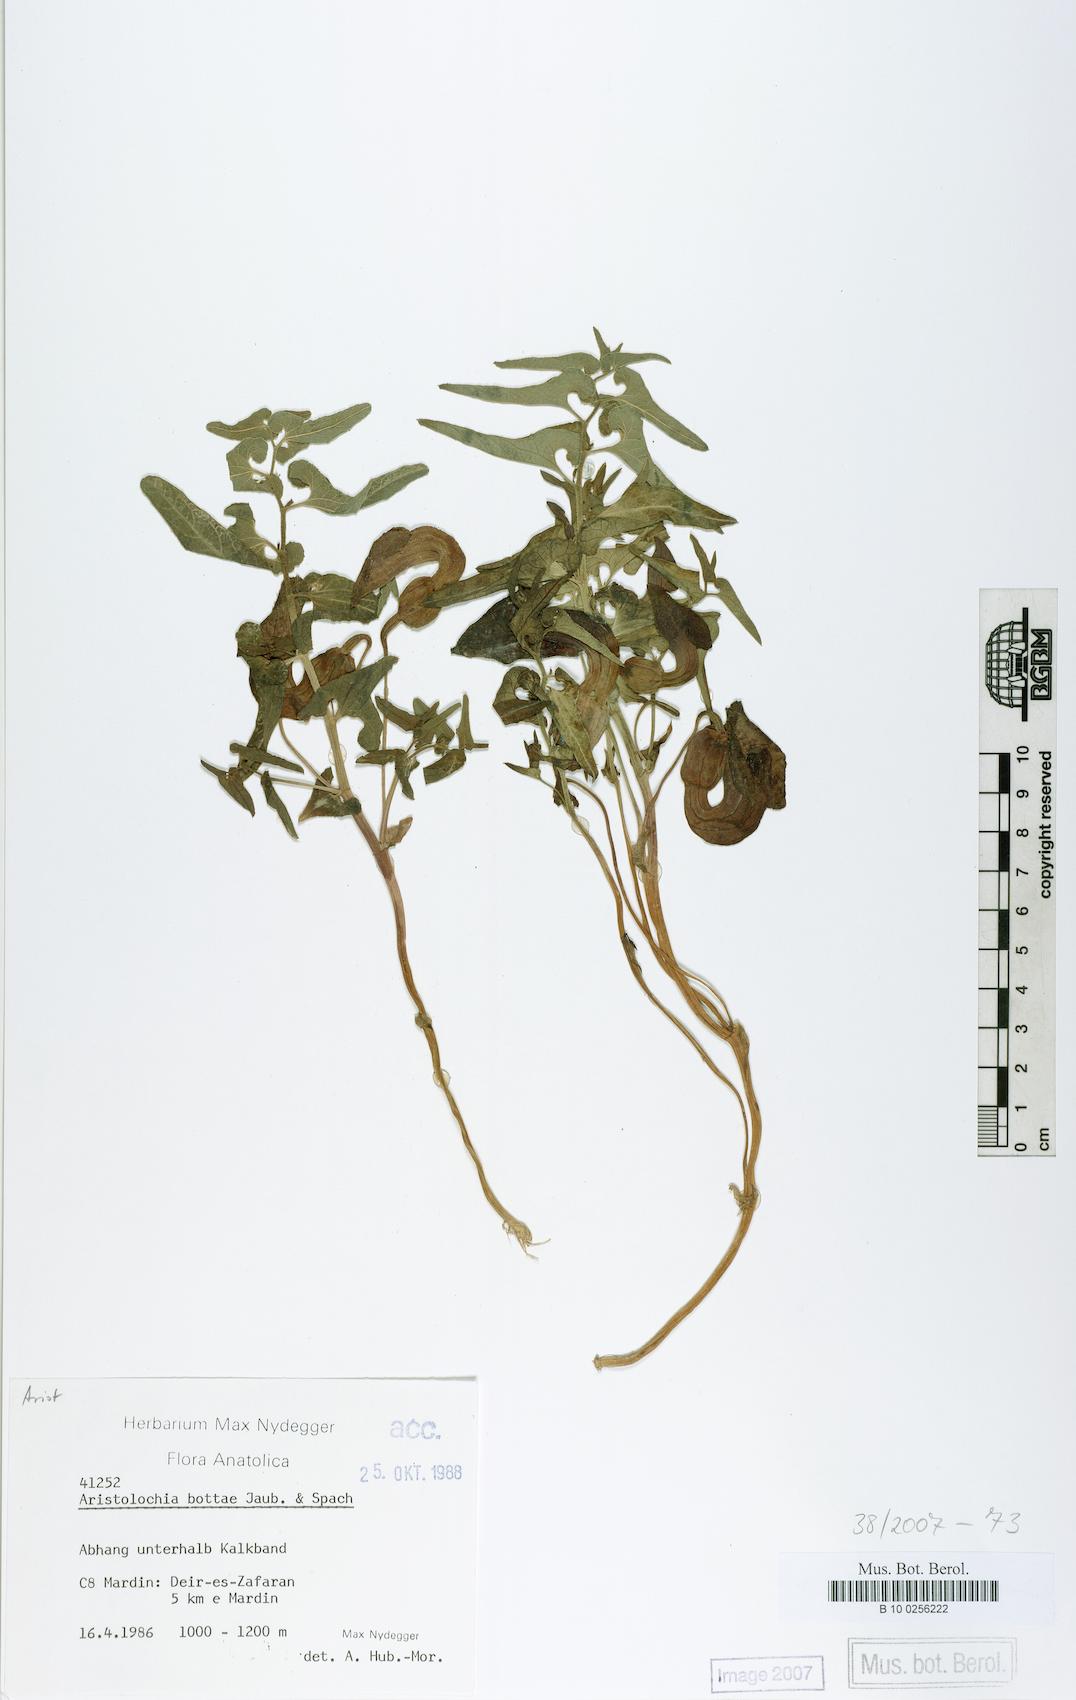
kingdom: Plantae
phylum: Tracheophyta
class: Magnoliopsida
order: Piperales
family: Aristolochiaceae
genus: Aristolochia
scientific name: Aristolochia bottae
